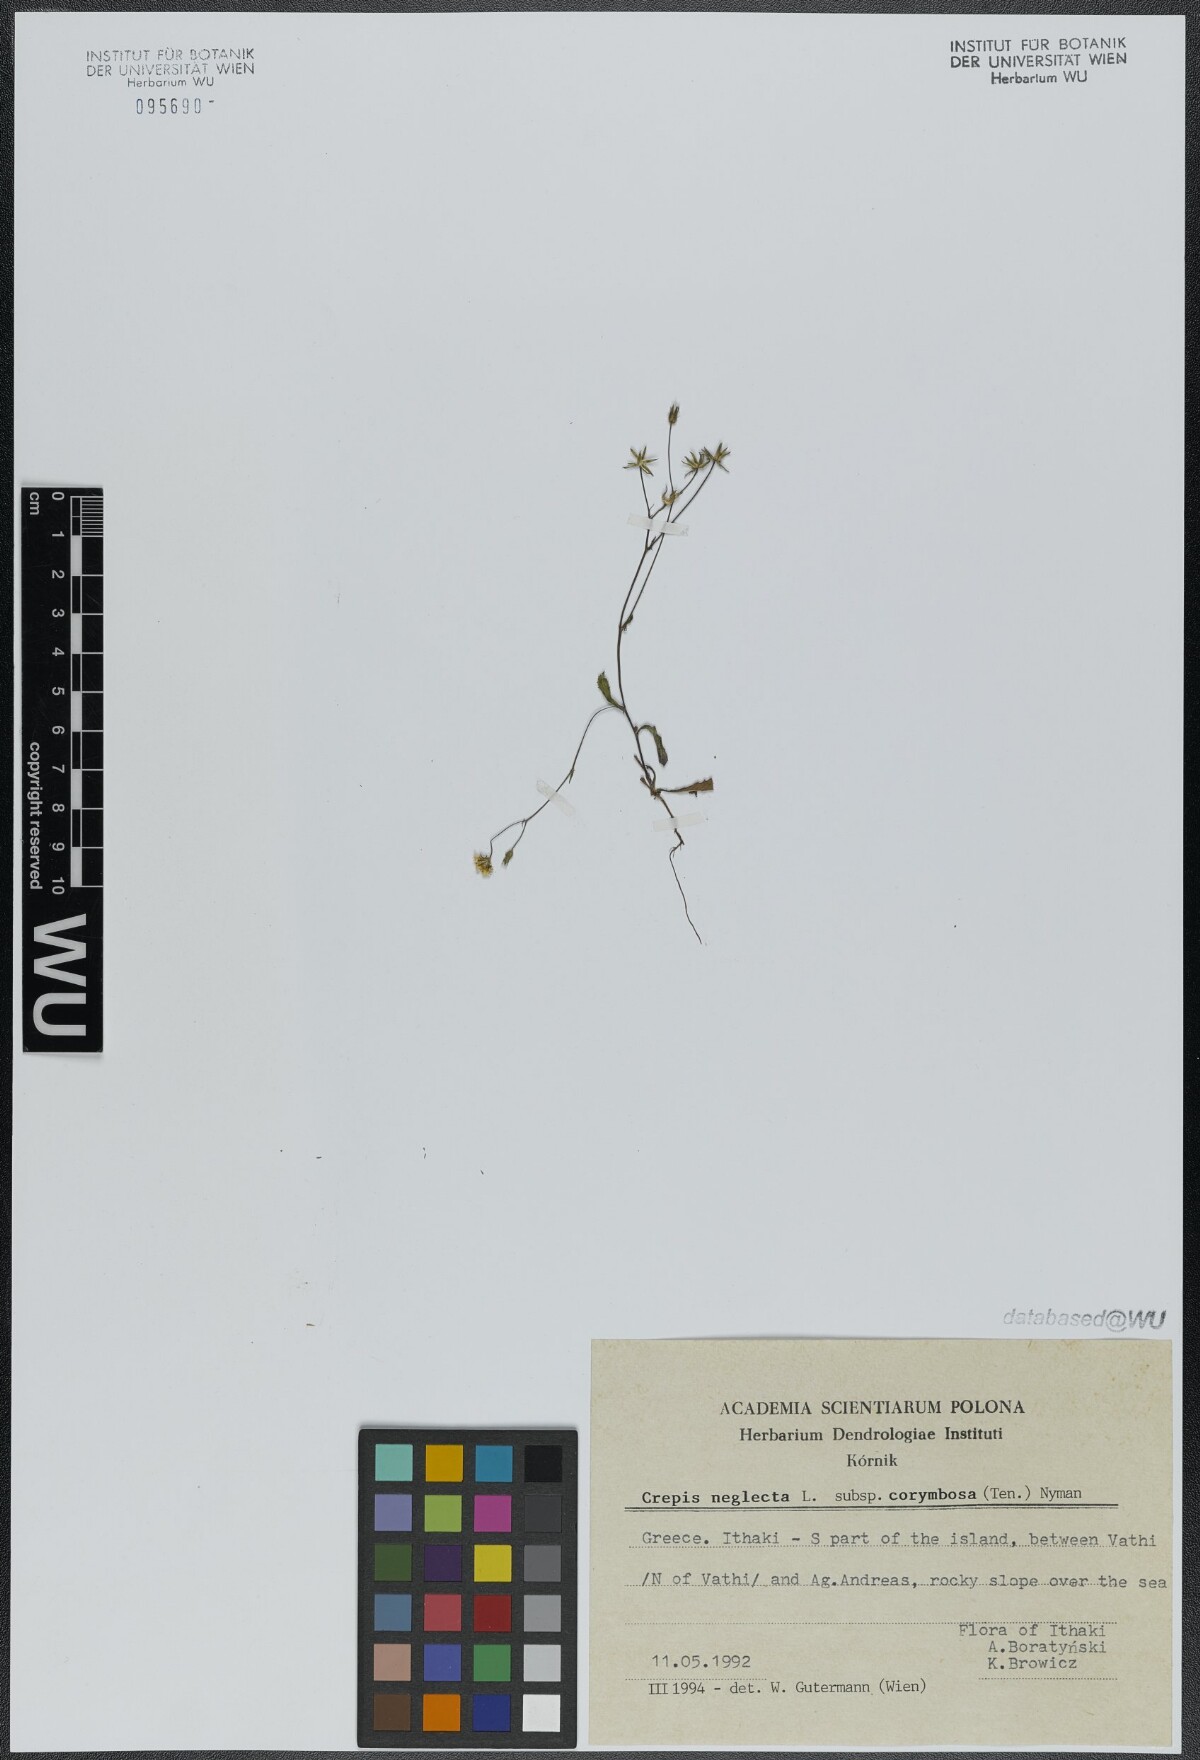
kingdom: Plantae
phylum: Tracheophyta
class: Magnoliopsida
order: Asterales
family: Asteraceae
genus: Crepis
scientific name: Crepis neglecta
